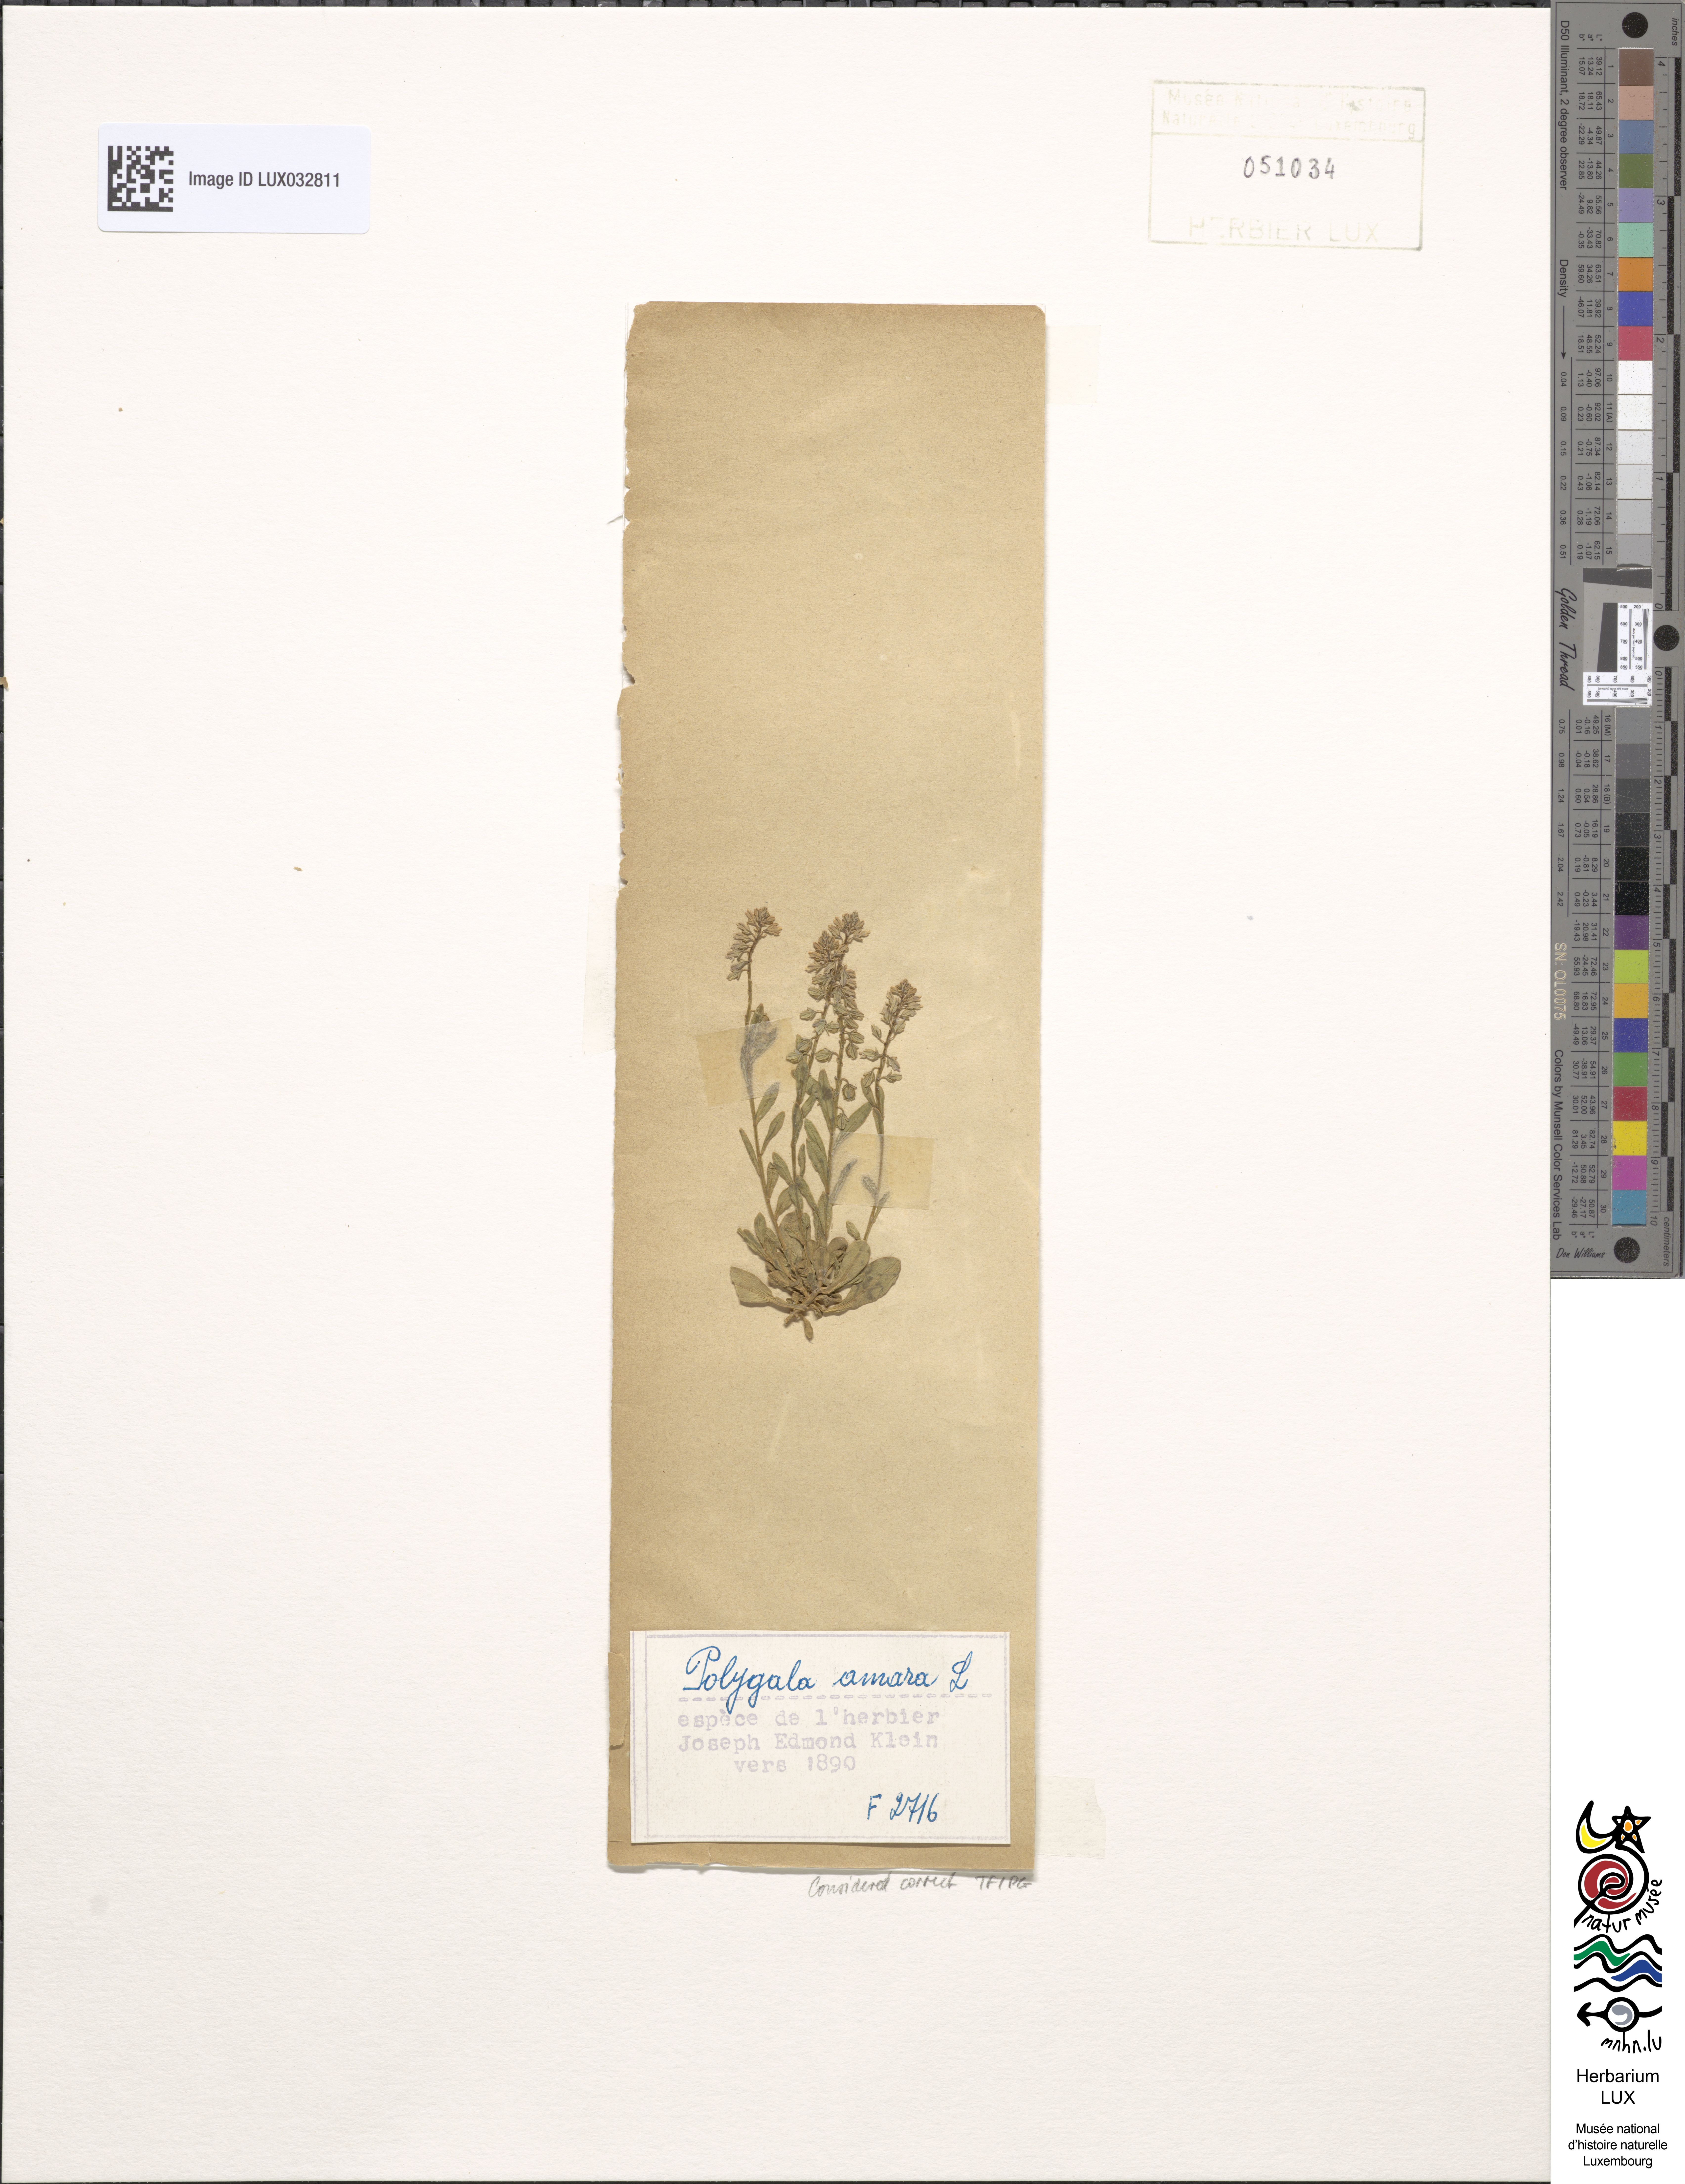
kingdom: Plantae
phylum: Tracheophyta
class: Magnoliopsida
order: Fabales
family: Polygalaceae
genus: Polygala
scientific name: Polygala amara
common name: Milkwort
